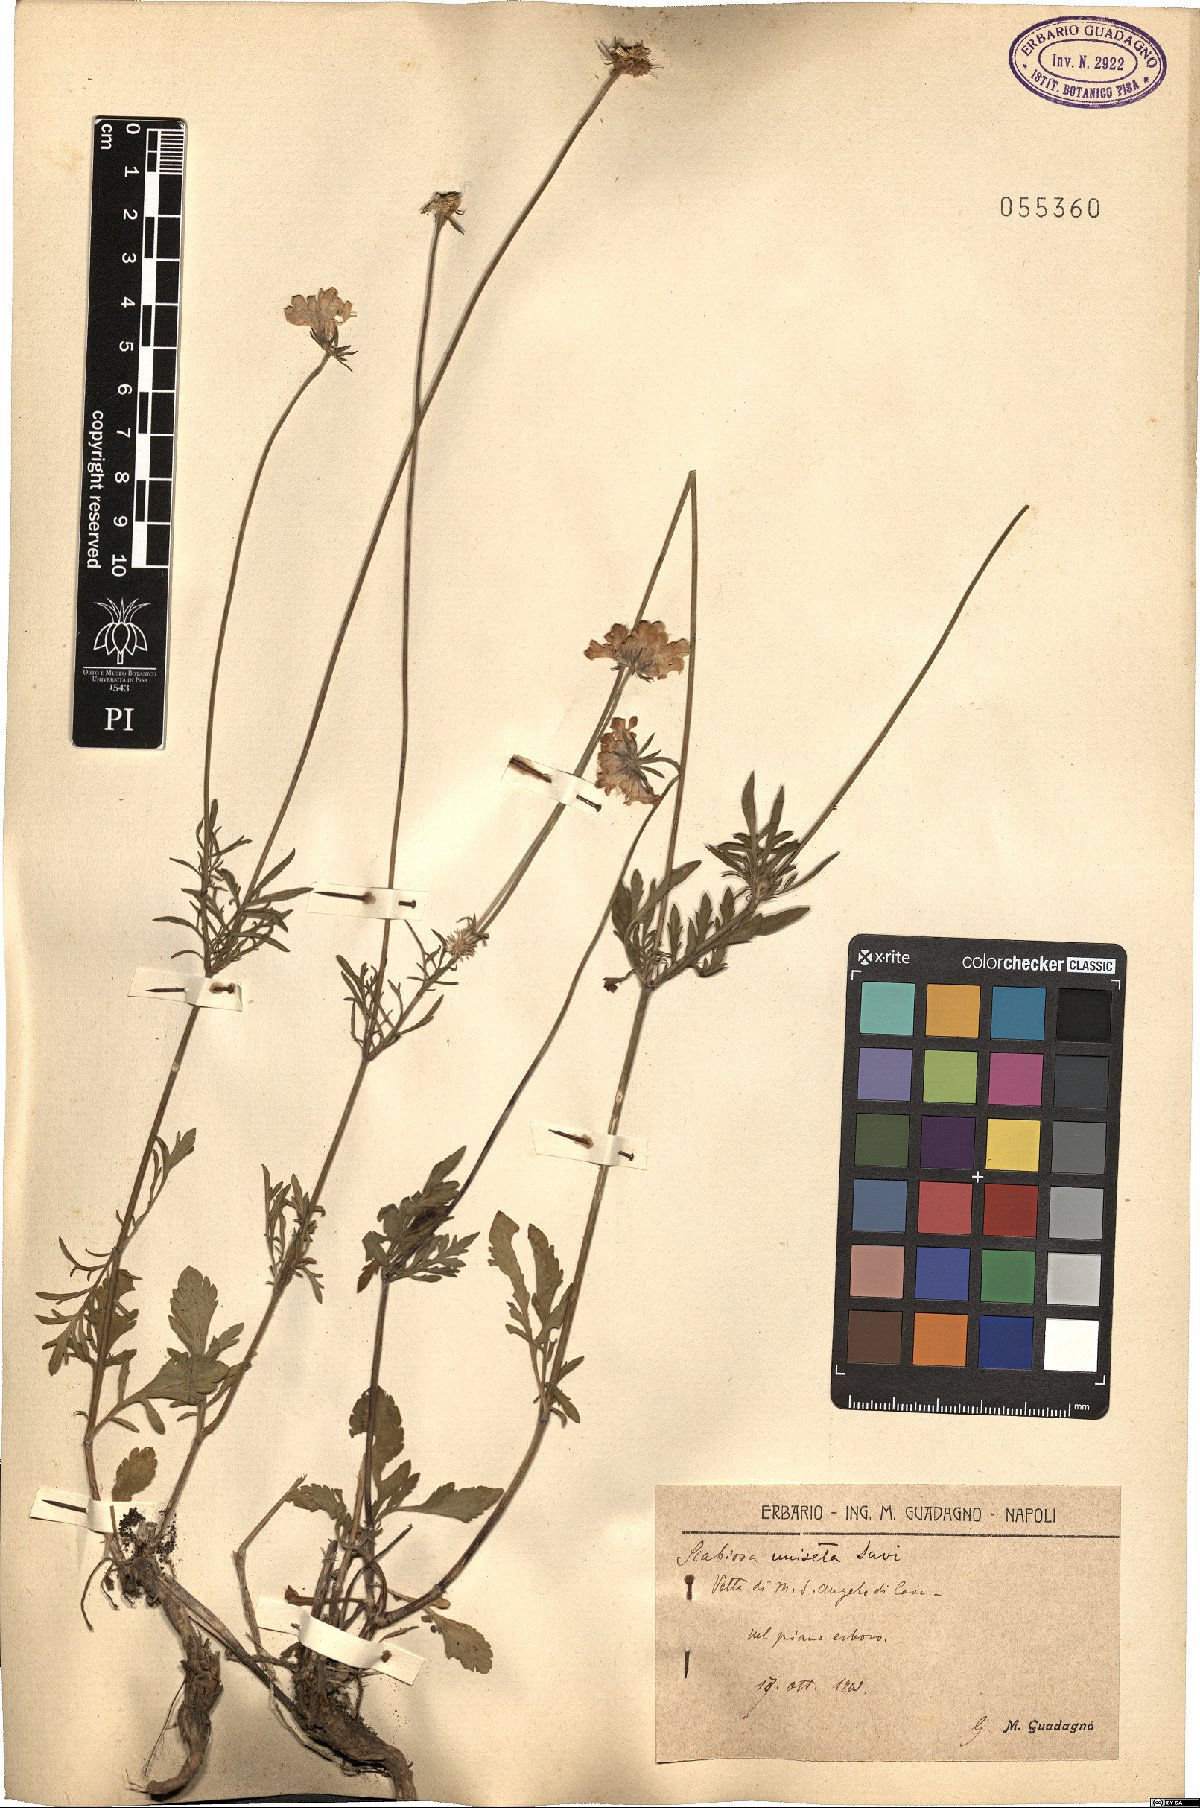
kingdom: Plantae
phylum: Tracheophyta
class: Magnoliopsida
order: Dipsacales
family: Caprifoliaceae
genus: Scabiosa
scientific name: Scabiosa columbaria
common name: Small scabious
